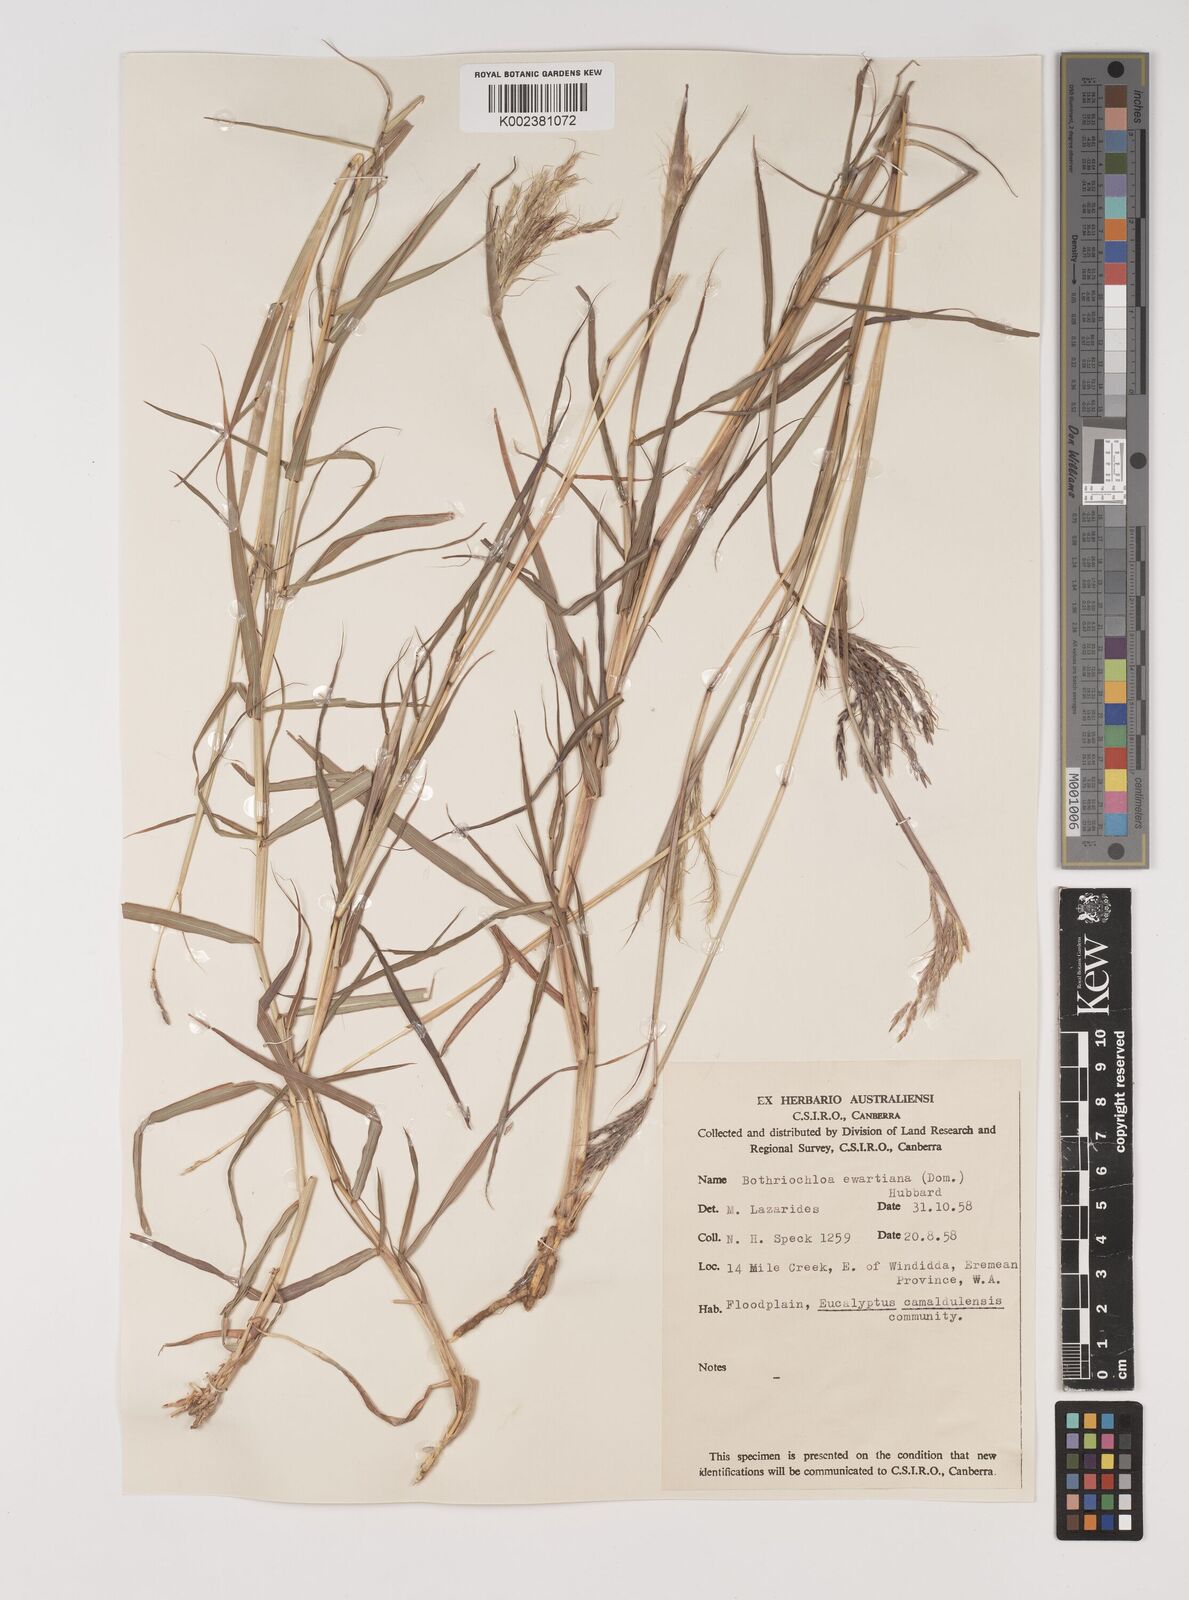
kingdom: Plantae
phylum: Tracheophyta
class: Liliopsida
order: Poales
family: Poaceae
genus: Bothriochloa
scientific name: Bothriochloa ewartiana
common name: Desert-bluegrass
